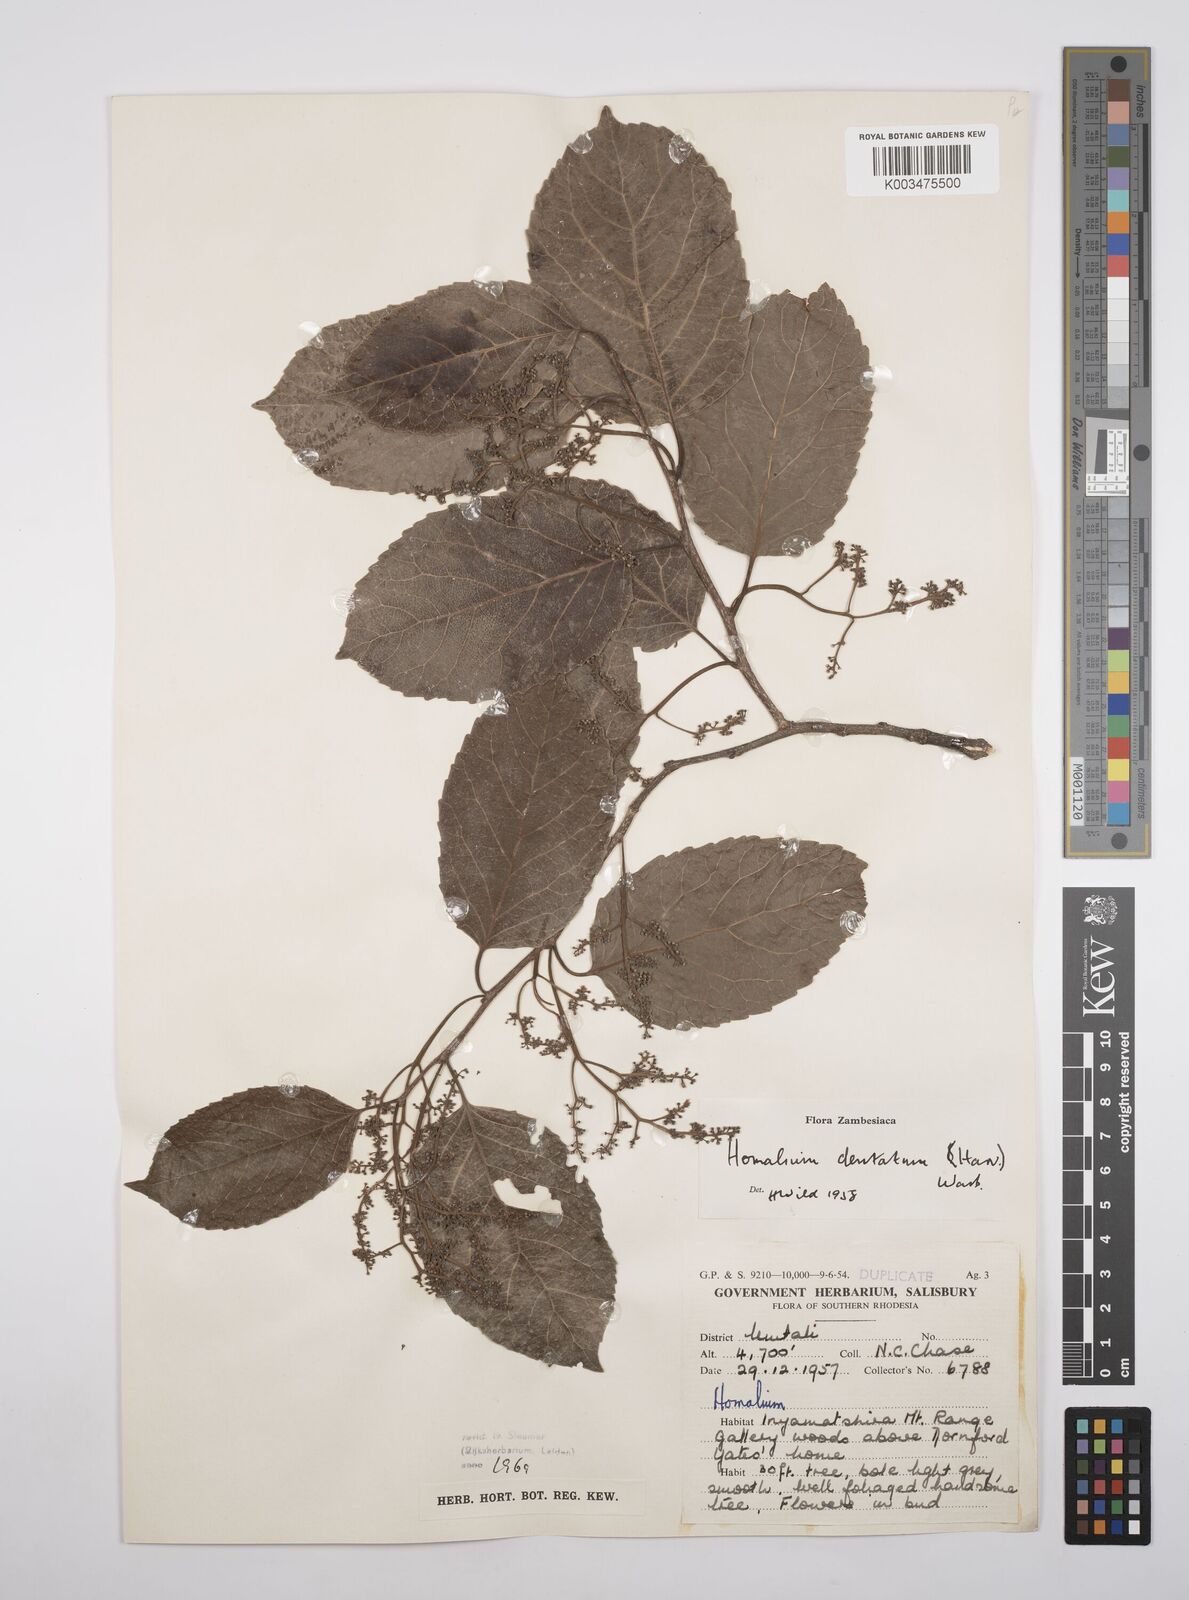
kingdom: Plantae
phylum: Tracheophyta
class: Magnoliopsida
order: Malpighiales
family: Salicaceae
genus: Homalium
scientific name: Homalium dentatum
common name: Brown ironwood
